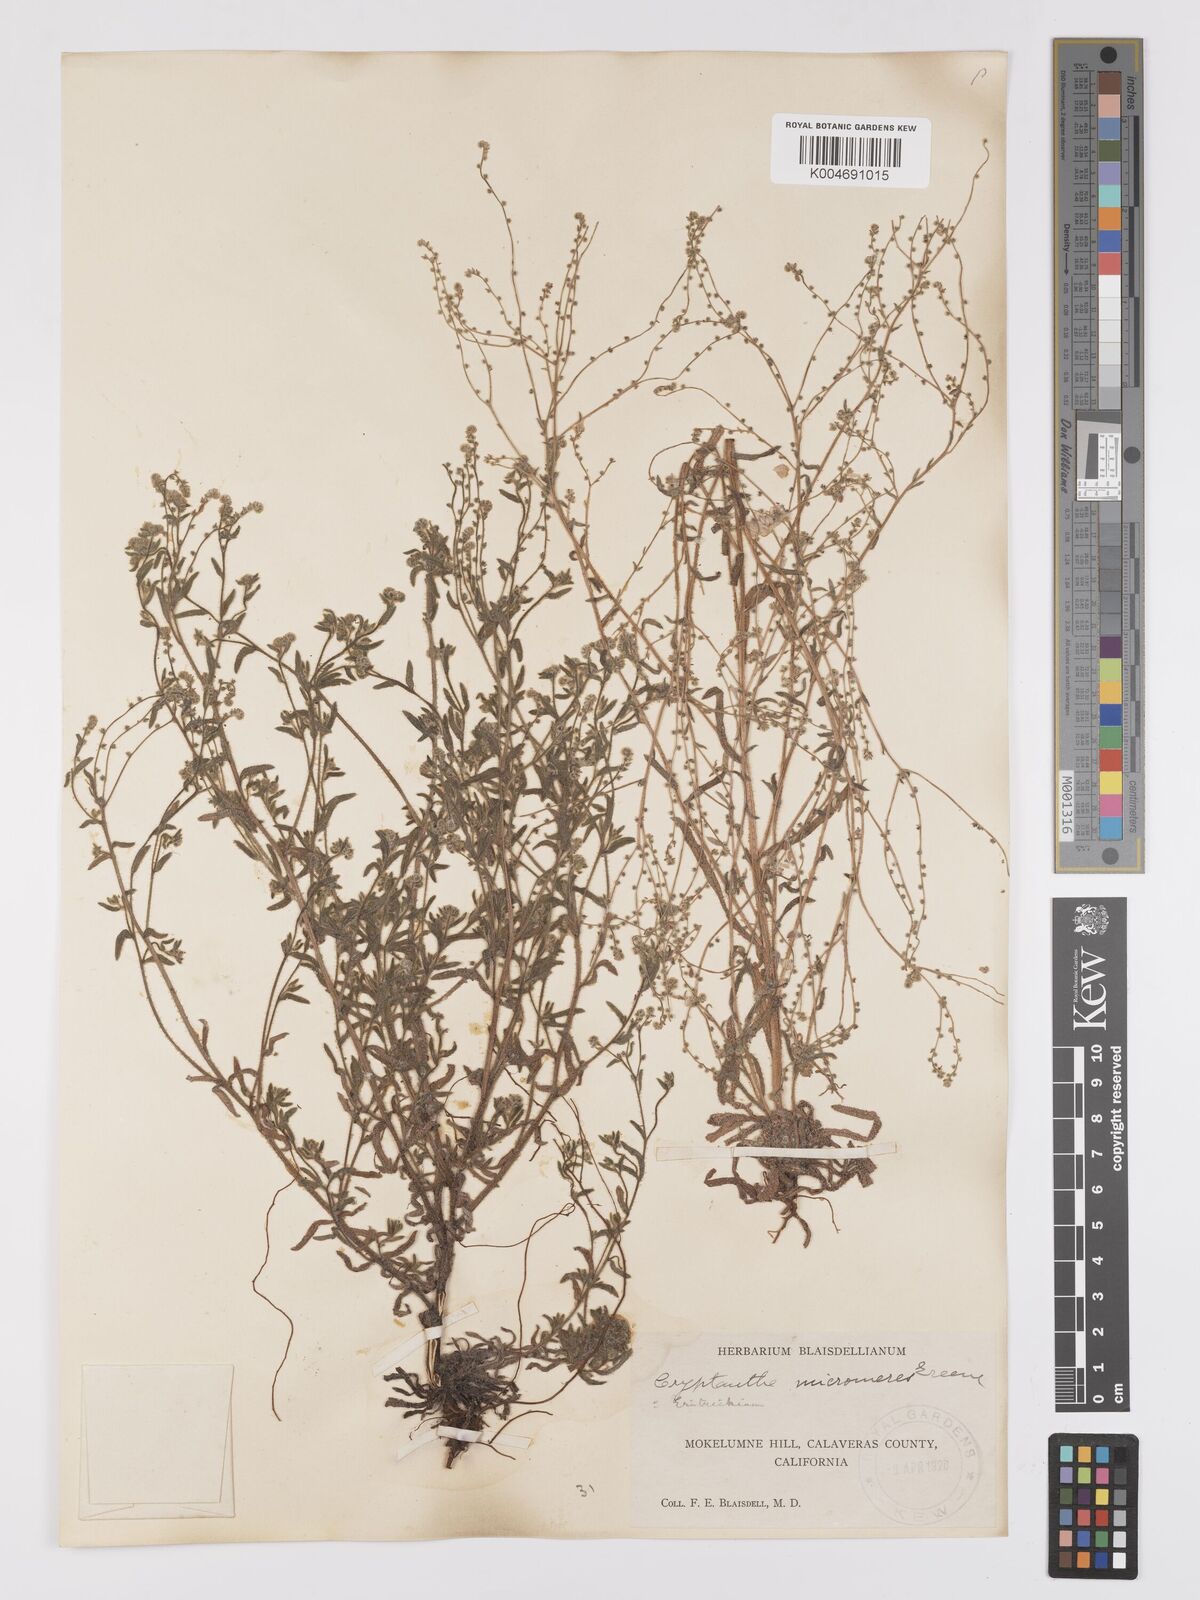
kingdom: Plantae
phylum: Tracheophyta
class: Magnoliopsida
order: Boraginales
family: Boraginaceae
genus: Johnstonella
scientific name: Johnstonella micromeres
